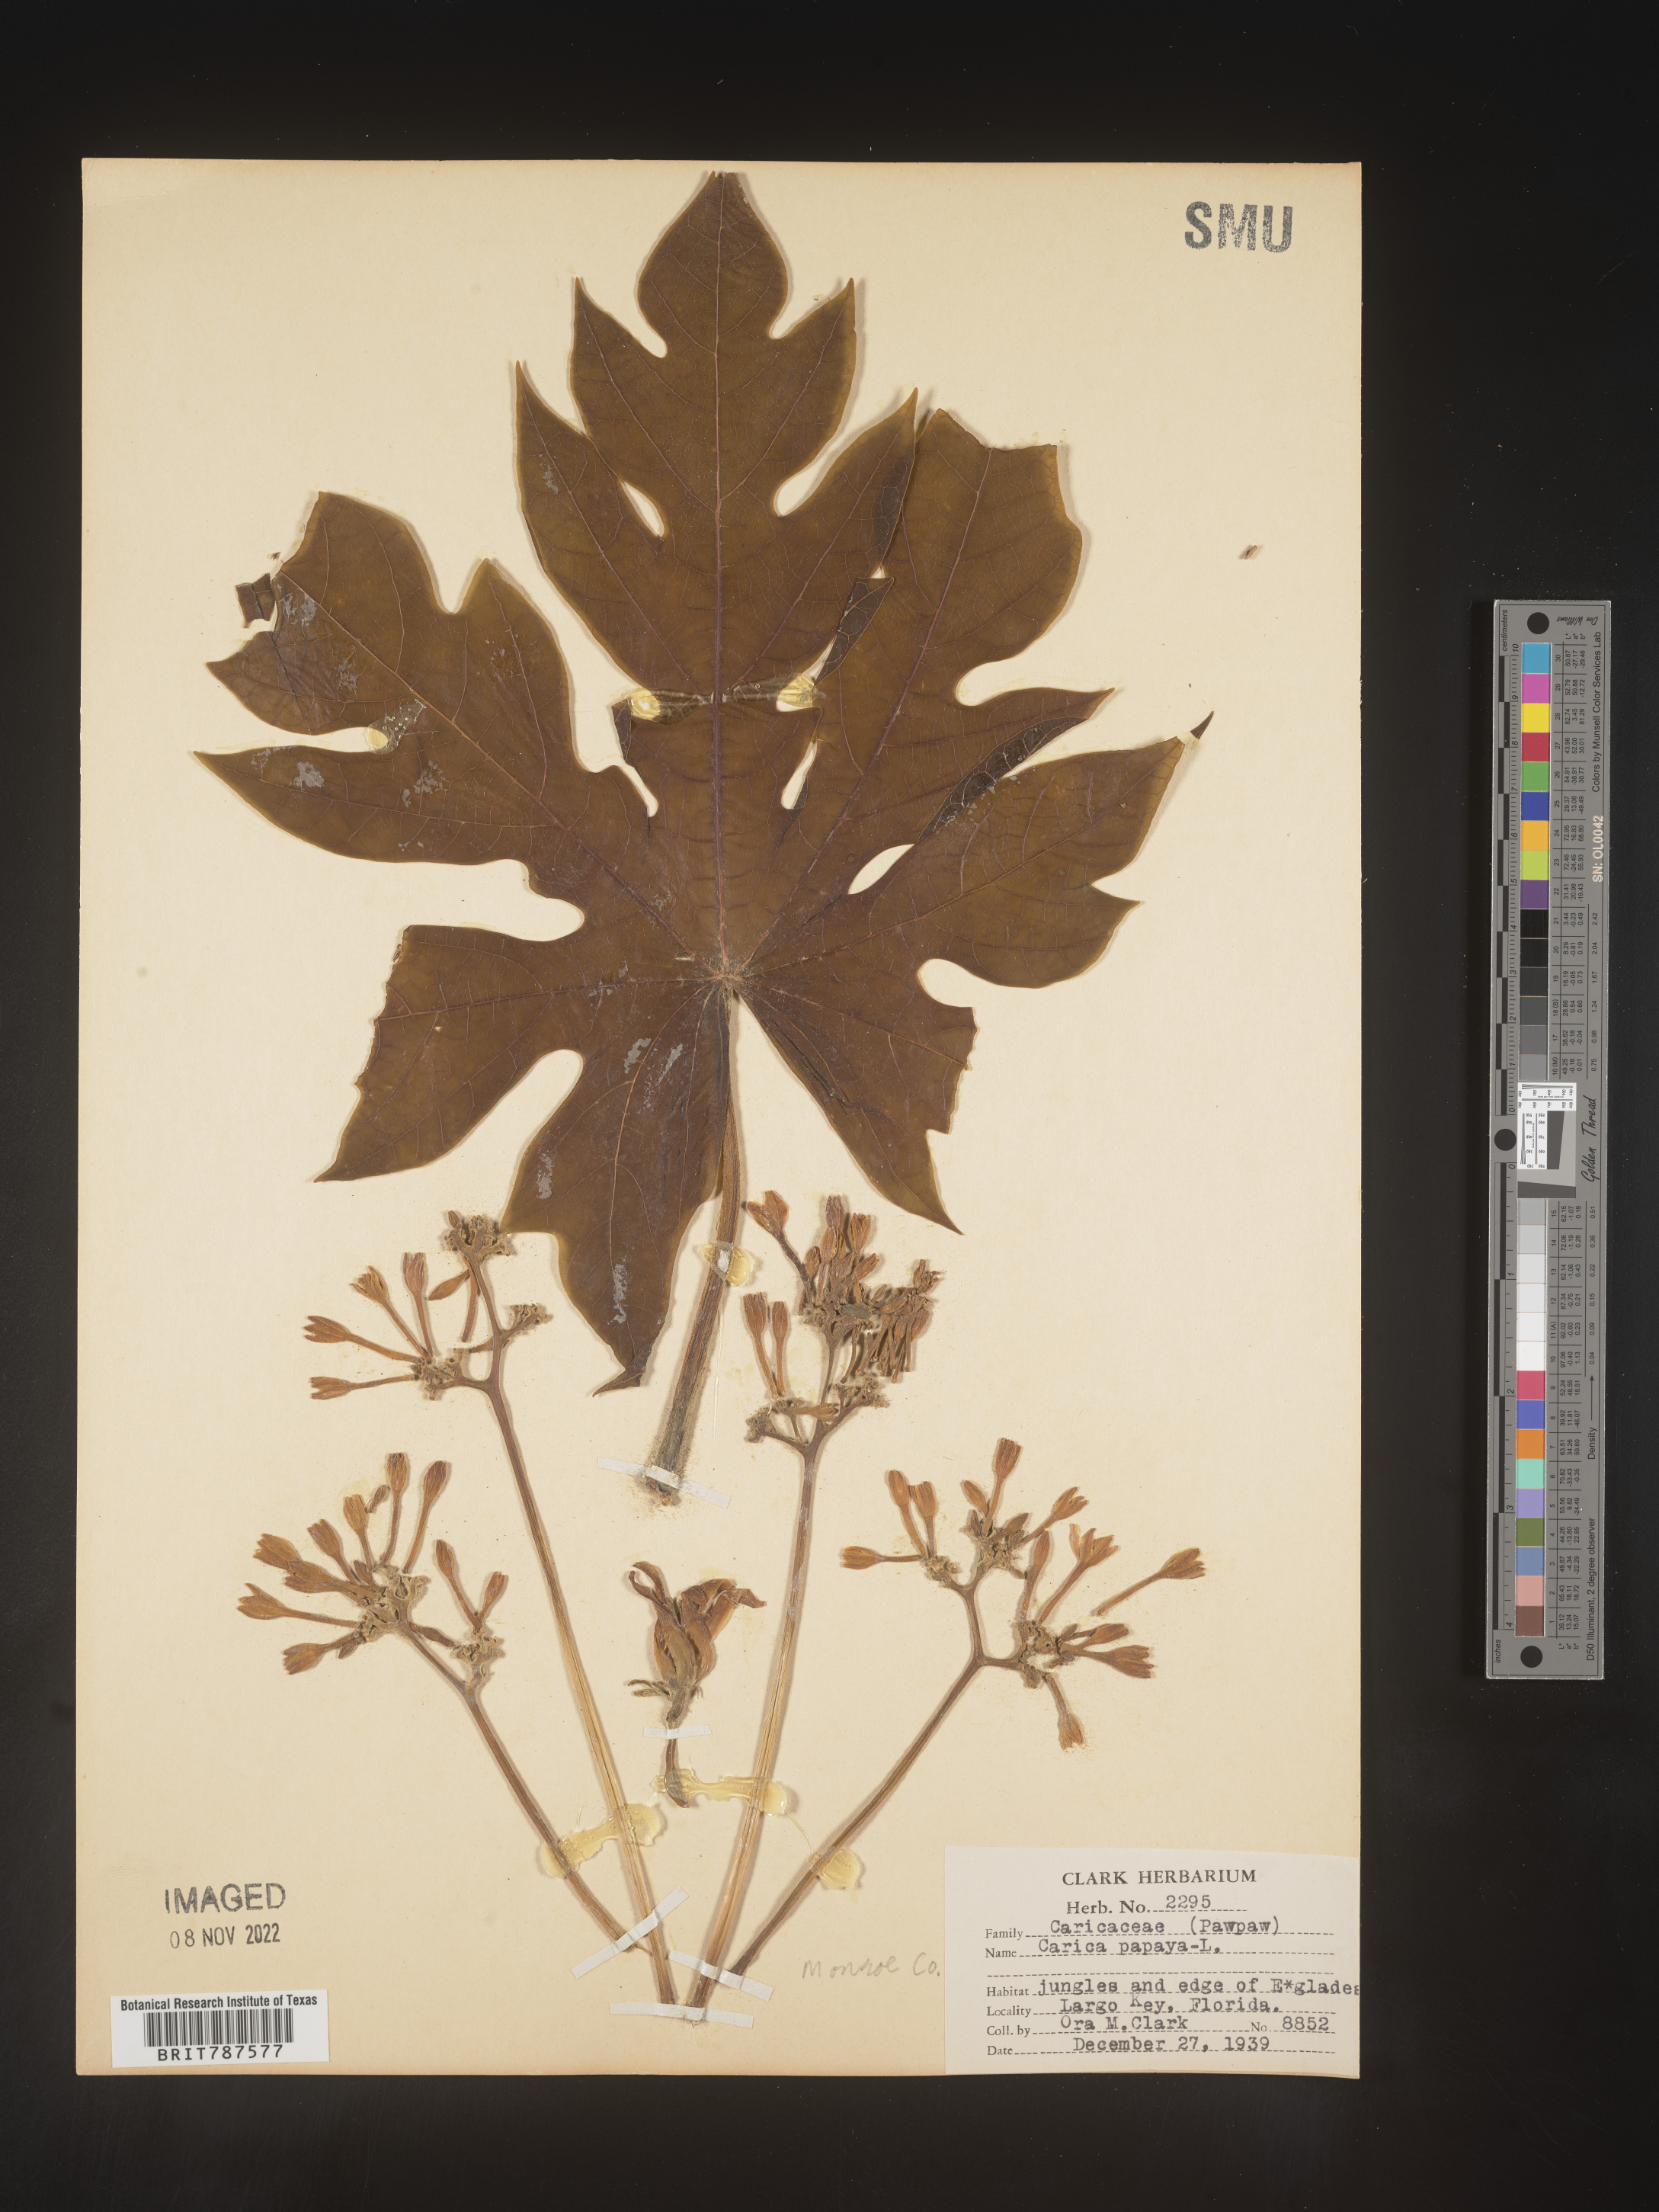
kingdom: Plantae
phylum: Tracheophyta
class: Magnoliopsida
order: Brassicales
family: Caricaceae
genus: Carica
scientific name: Carica
